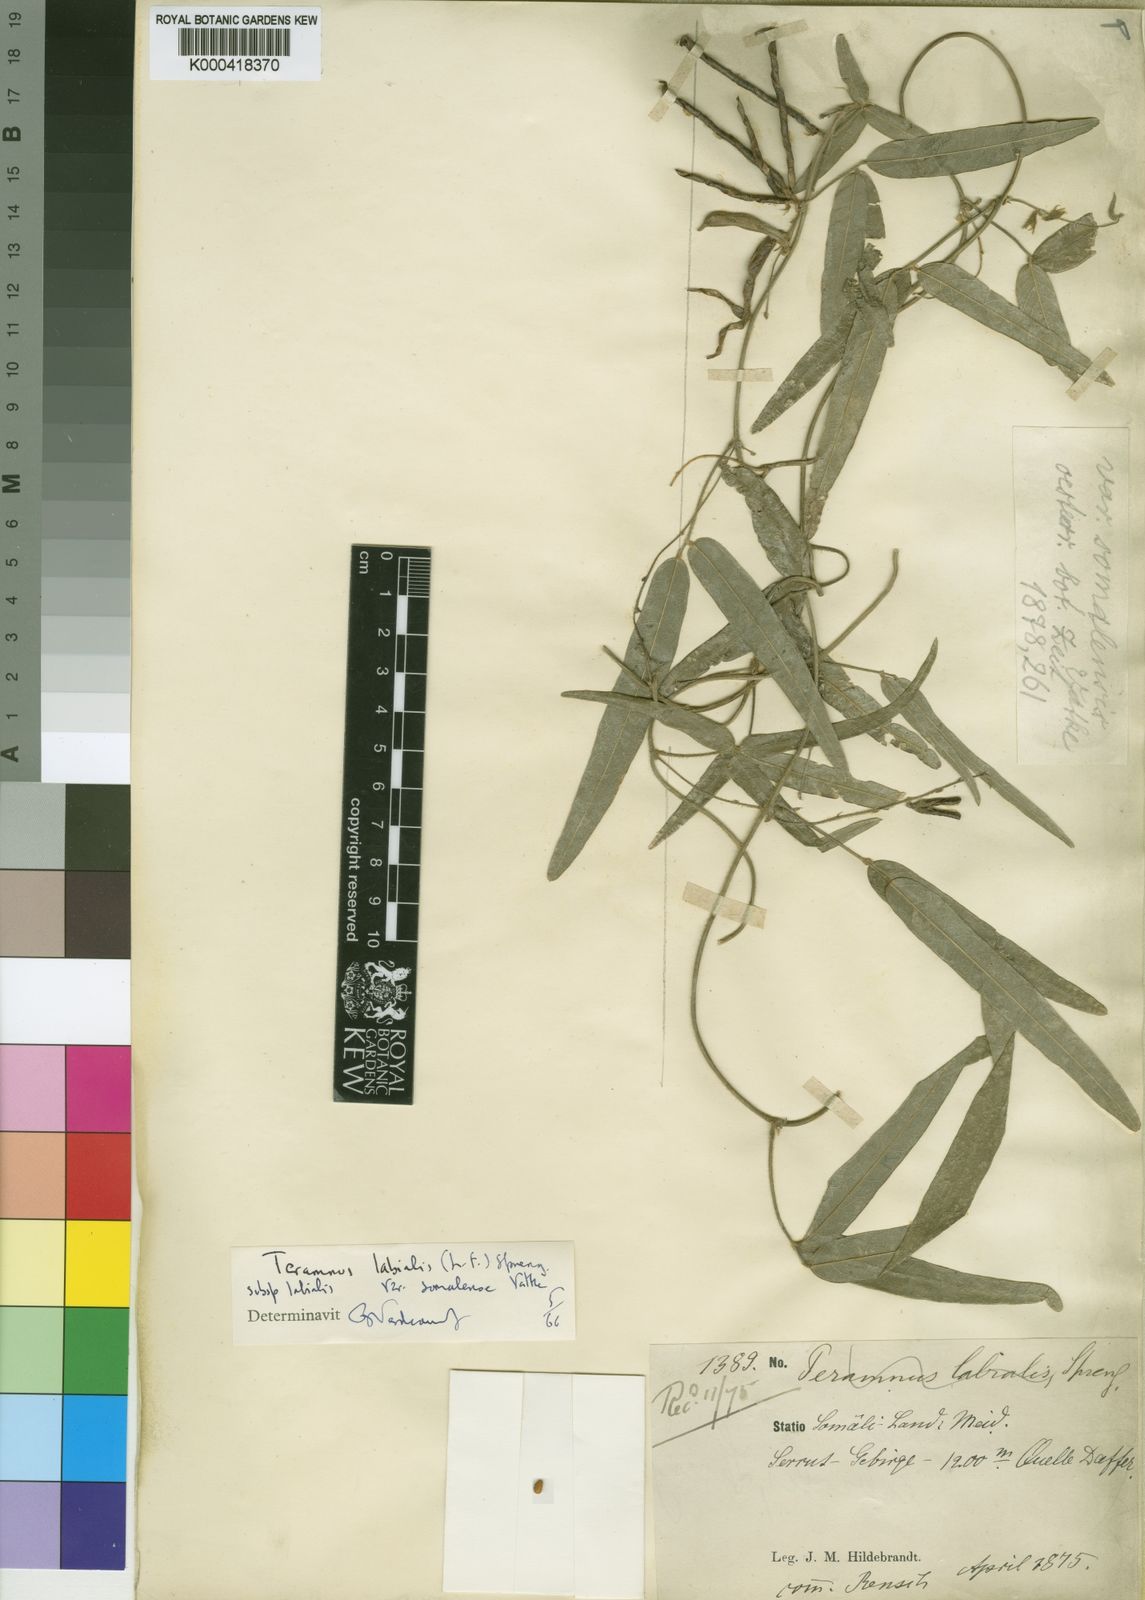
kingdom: Plantae
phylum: Tracheophyta
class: Magnoliopsida
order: Fabales
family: Fabaceae
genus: Teramnus
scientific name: Teramnus labialis
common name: Blue wiss
